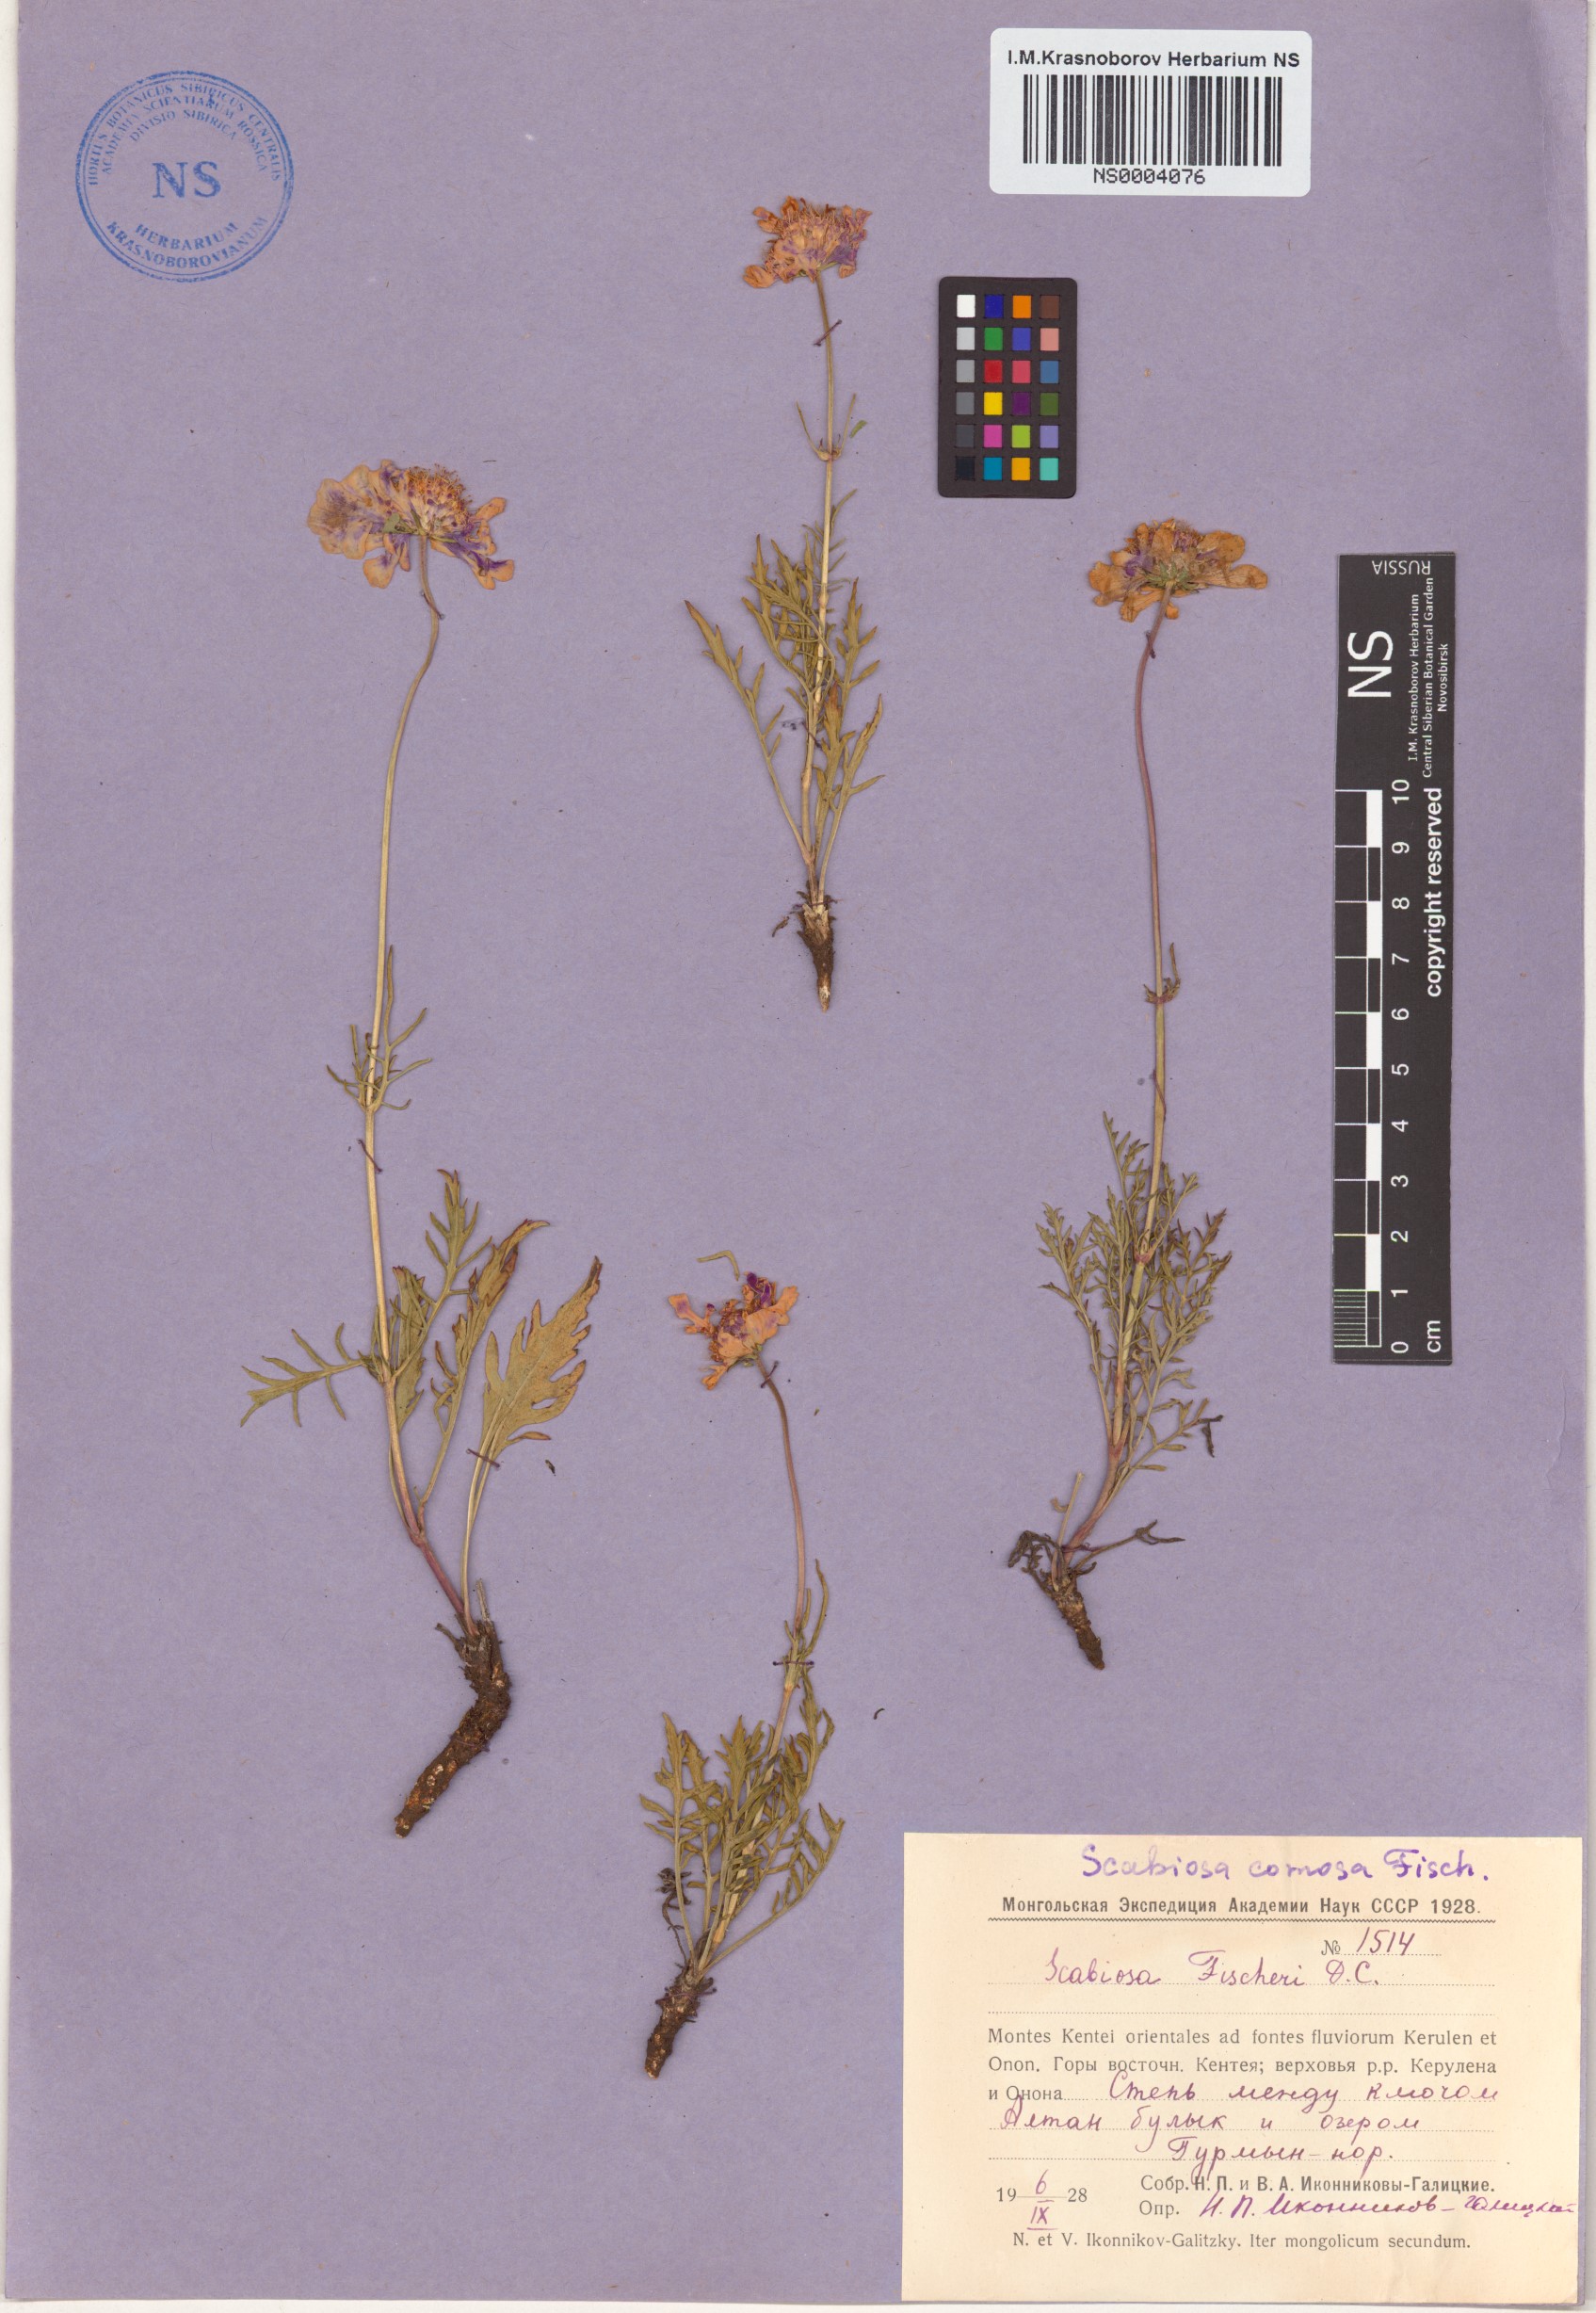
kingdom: Plantae
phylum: Tracheophyta
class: Magnoliopsida
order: Dipsacales
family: Caprifoliaceae
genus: Scabiosa
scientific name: Scabiosa comosa
